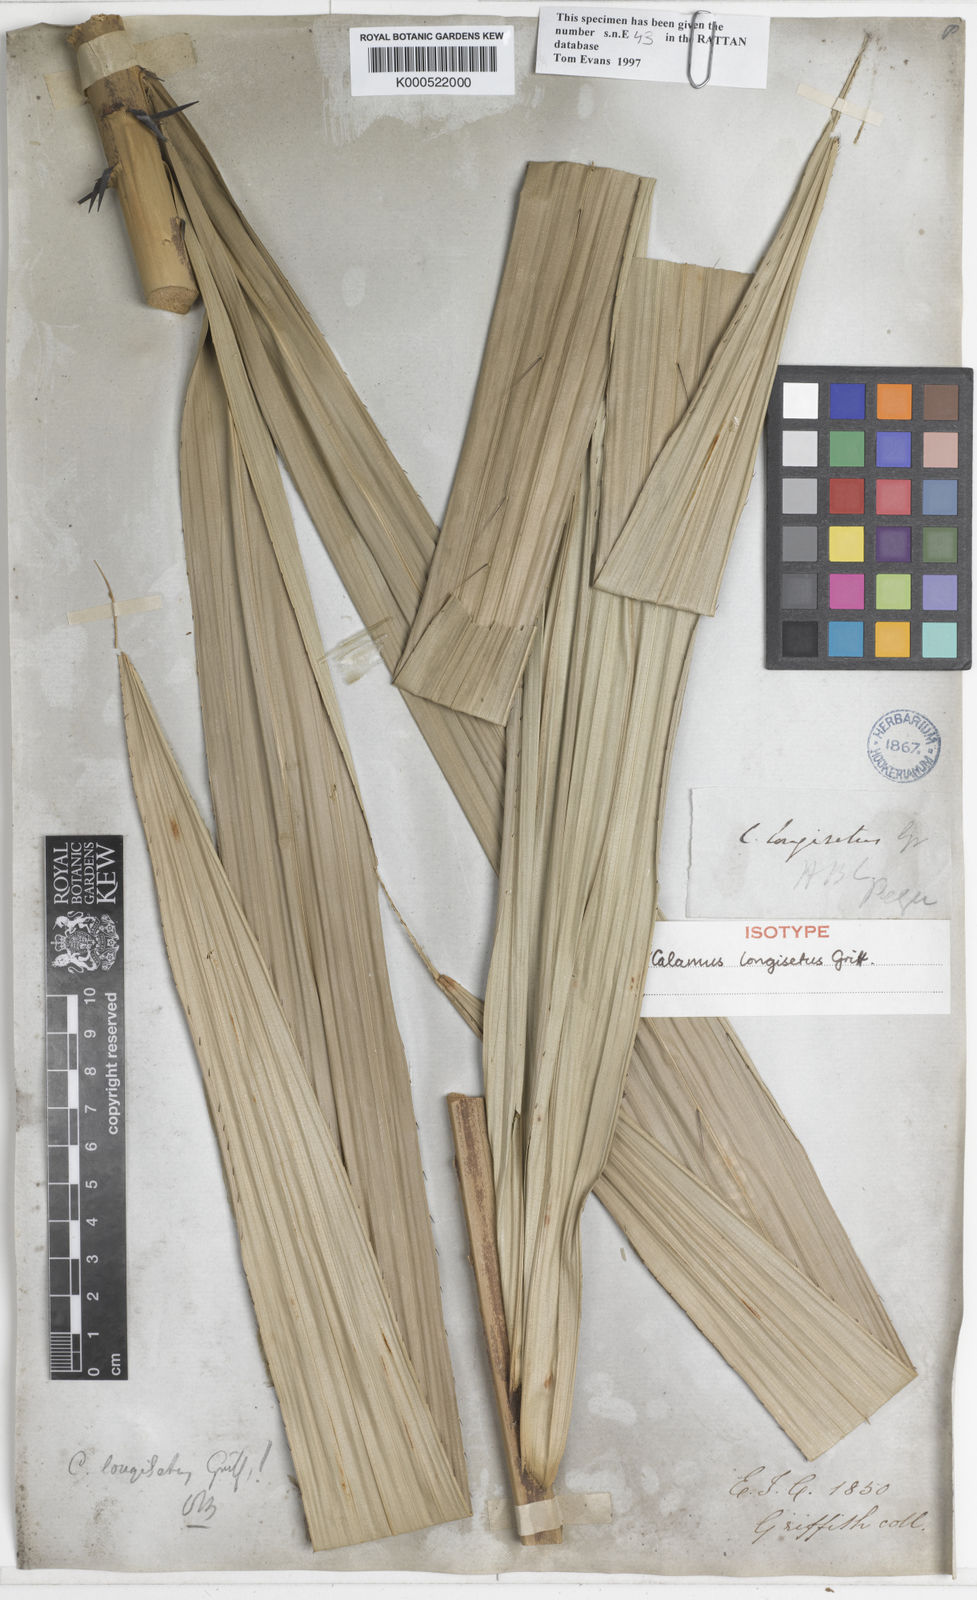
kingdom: Plantae
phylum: Tracheophyta
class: Liliopsida
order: Arecales
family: Arecaceae
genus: Calamus
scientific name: Calamus longisetus
